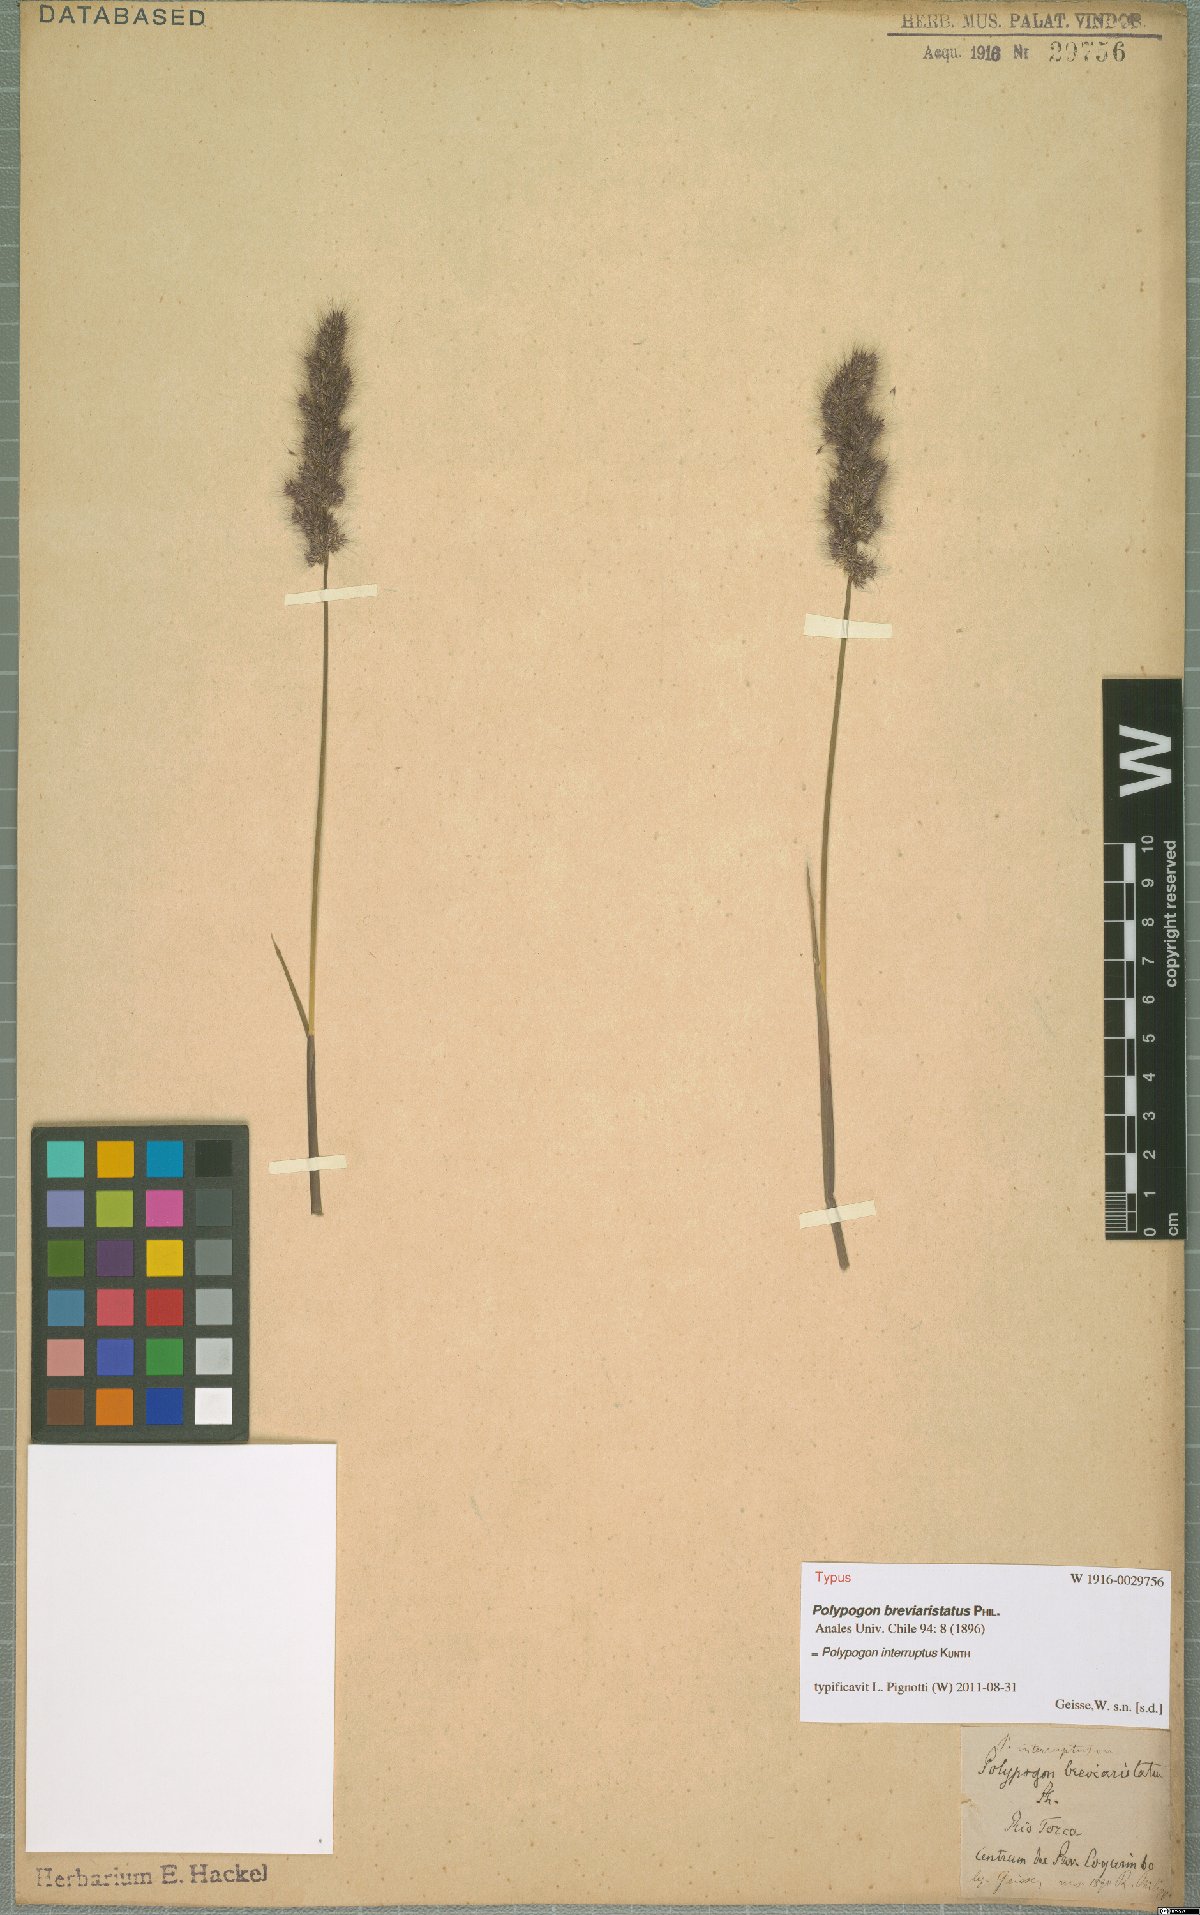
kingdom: Plantae
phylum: Tracheophyta
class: Liliopsida
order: Poales
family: Poaceae
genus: Polypogon
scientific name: Polypogon interruptus
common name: Ditch polypogon
